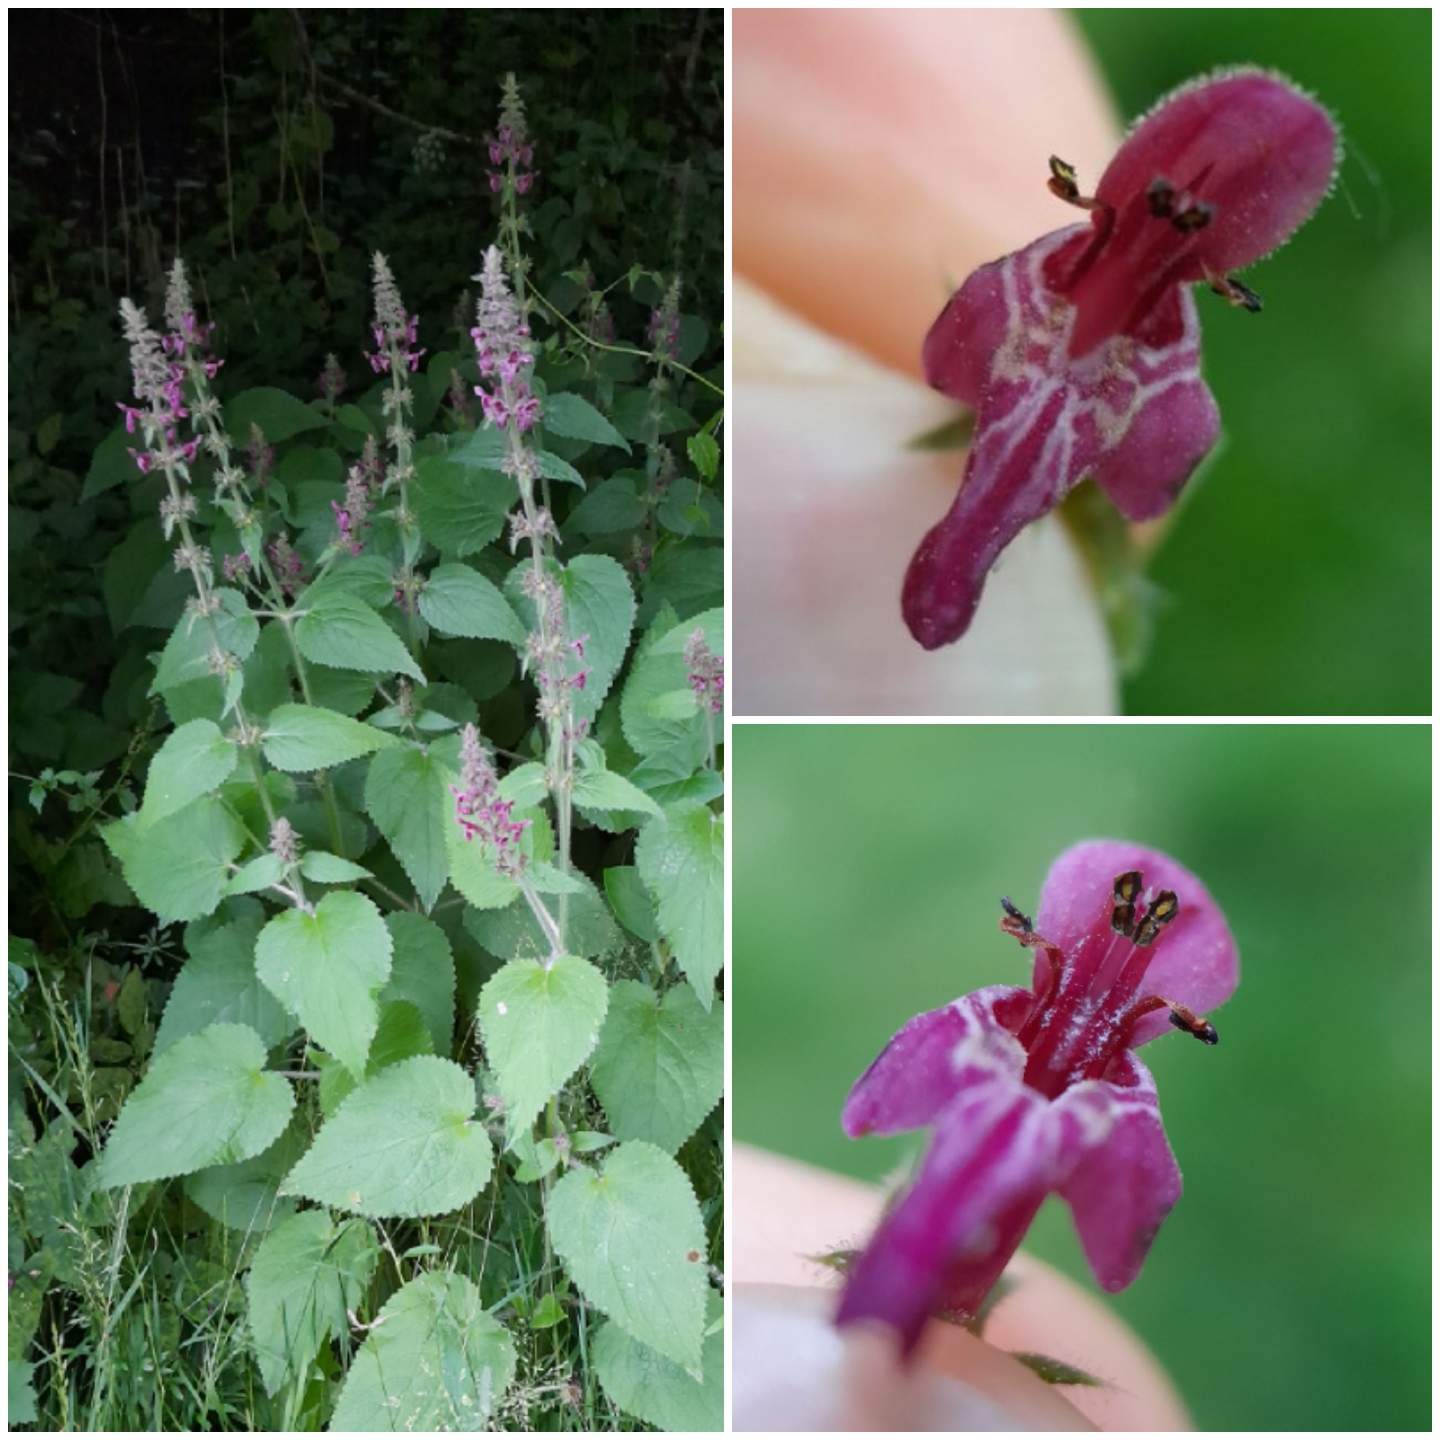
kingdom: Plantae
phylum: Tracheophyta
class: Magnoliopsida
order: Lamiales
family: Lamiaceae
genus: Stachys
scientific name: Stachys sylvatica
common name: Skov-galtetand
